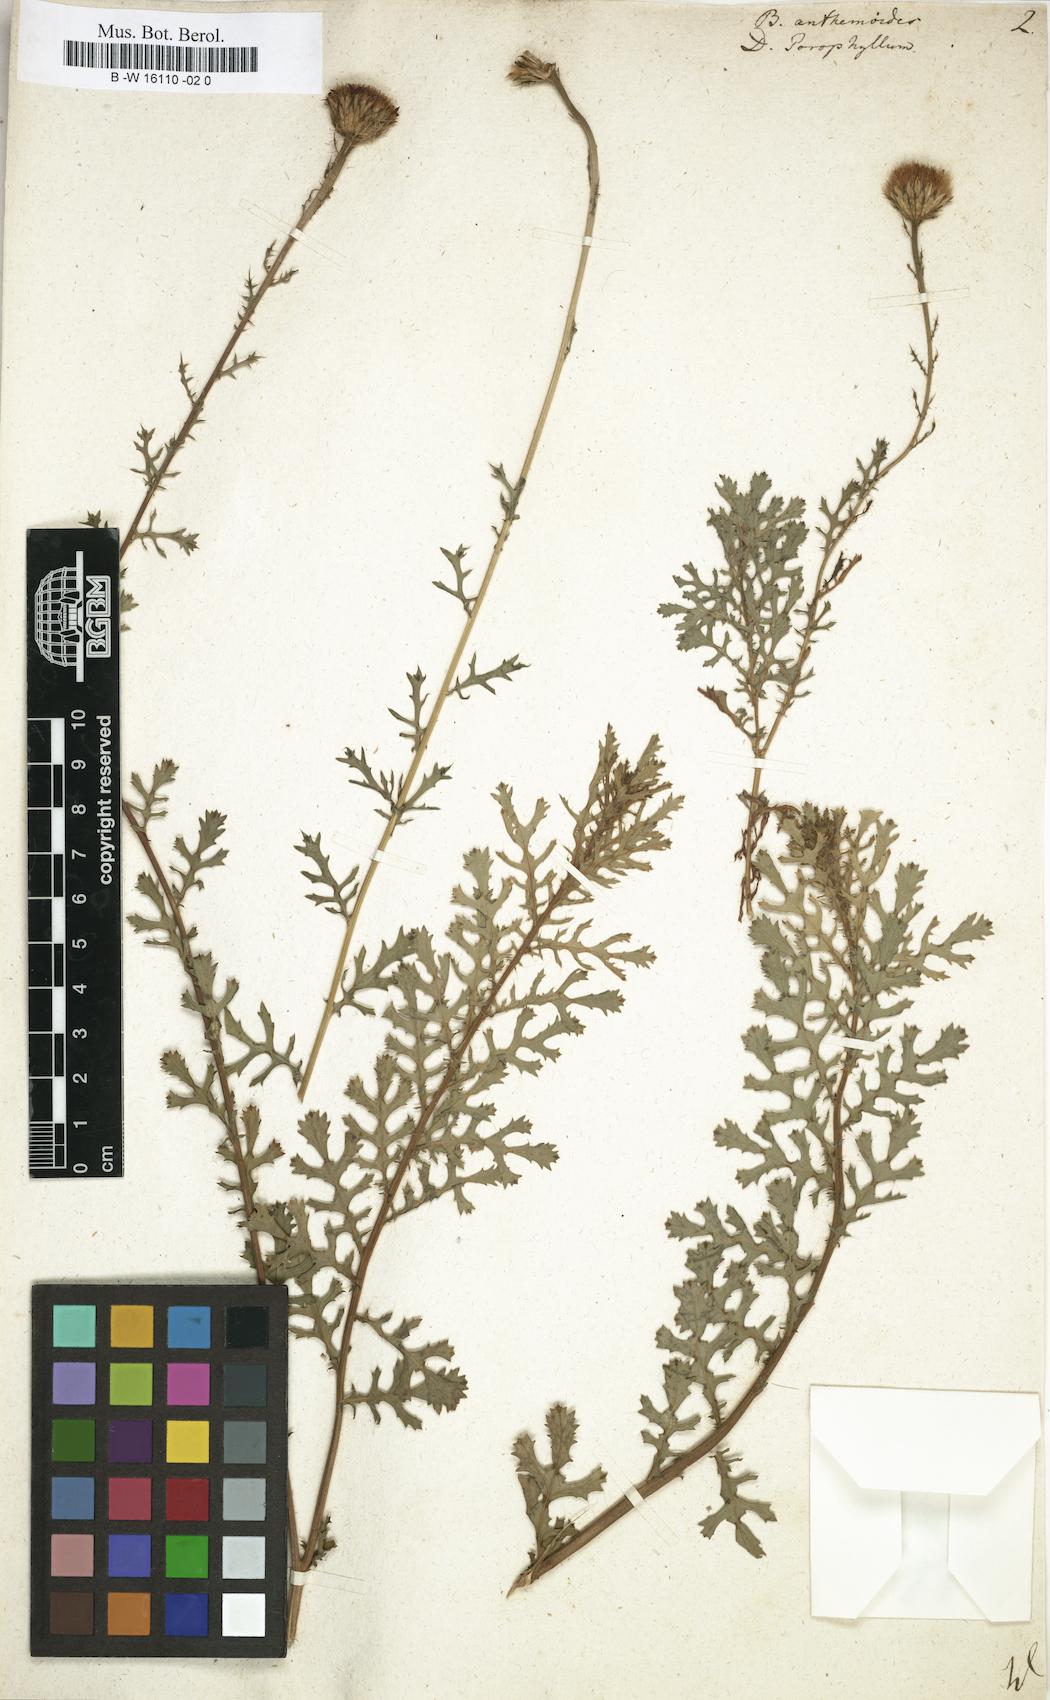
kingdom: Plantae
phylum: Tracheophyta
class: Magnoliopsida
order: Asterales
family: Asteraceae
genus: Dyssodia
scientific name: Dyssodia
